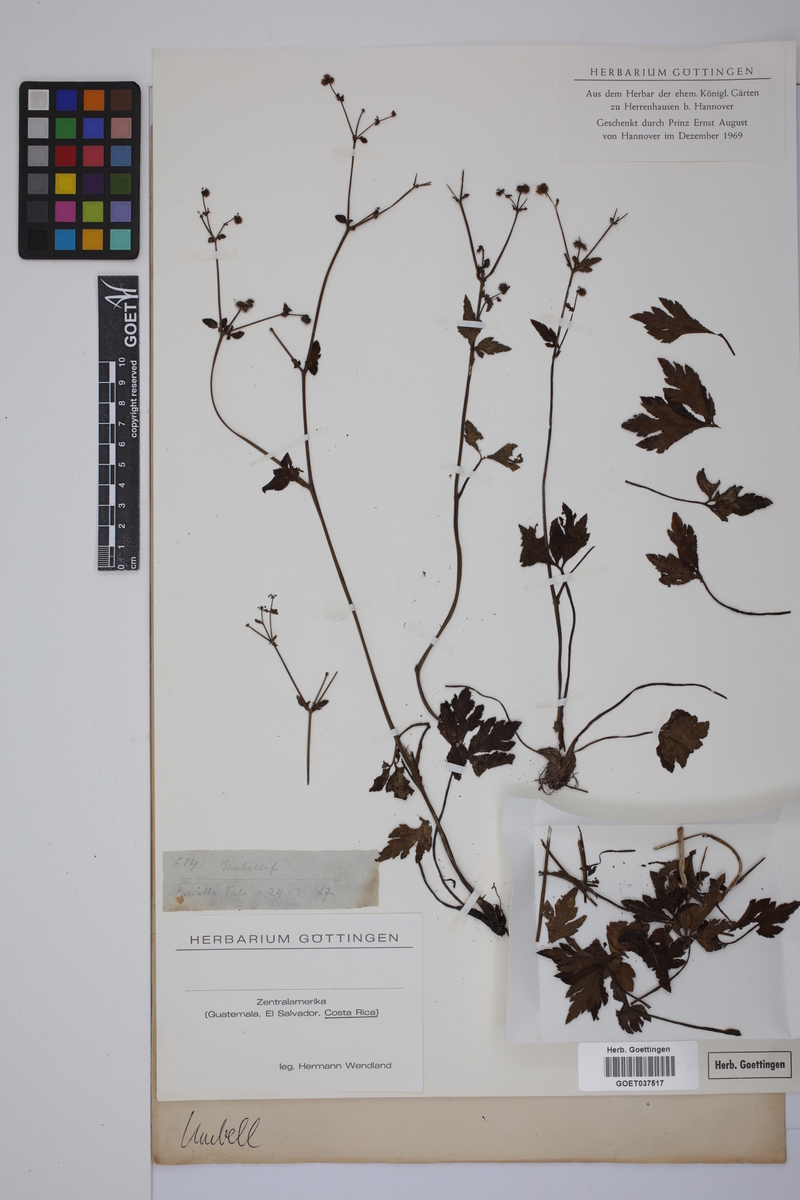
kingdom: Plantae
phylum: Tracheophyta
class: Magnoliopsida
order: Apiales
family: Apiaceae
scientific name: Apiaceae
